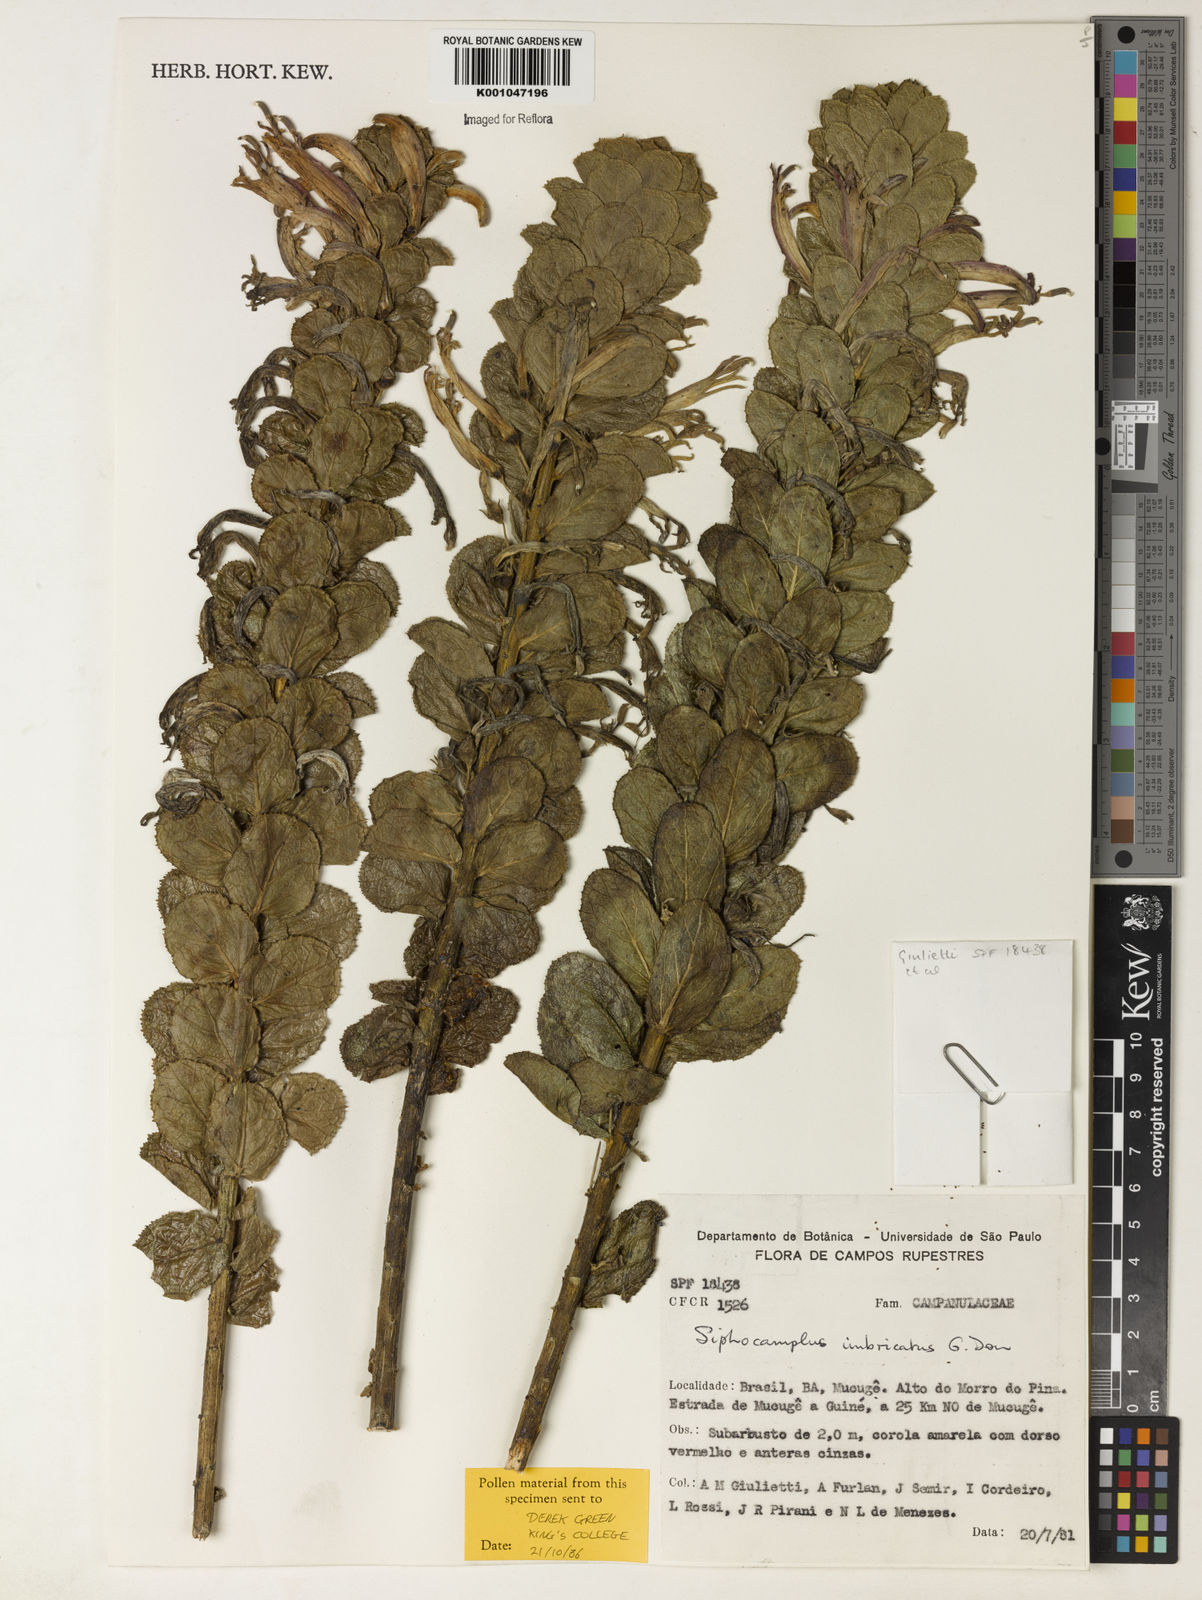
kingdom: Plantae
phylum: Tracheophyta
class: Magnoliopsida
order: Asterales
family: Campanulaceae
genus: Siphocampylus
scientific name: Siphocampylus imbricatus
